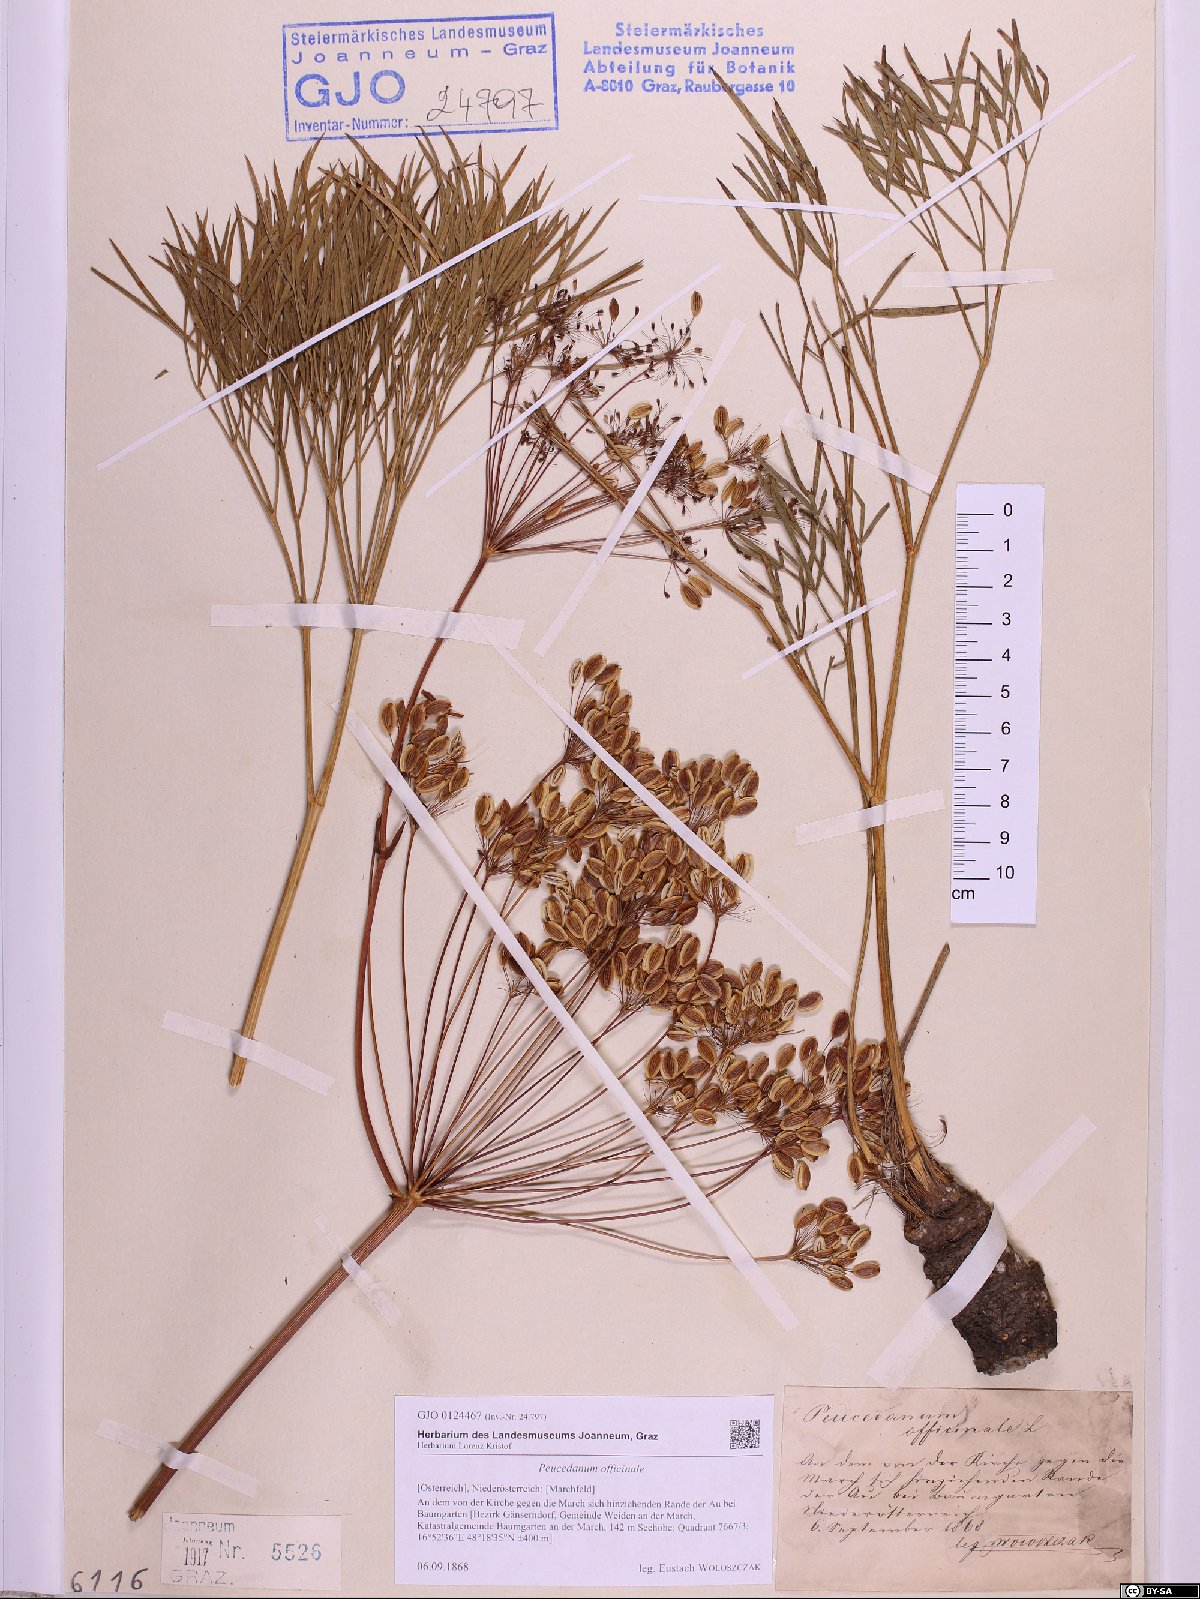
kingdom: Plantae
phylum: Tracheophyta
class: Magnoliopsida
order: Apiales
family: Apiaceae
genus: Peucedanum
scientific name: Peucedanum officinale
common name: Sulphurweed
